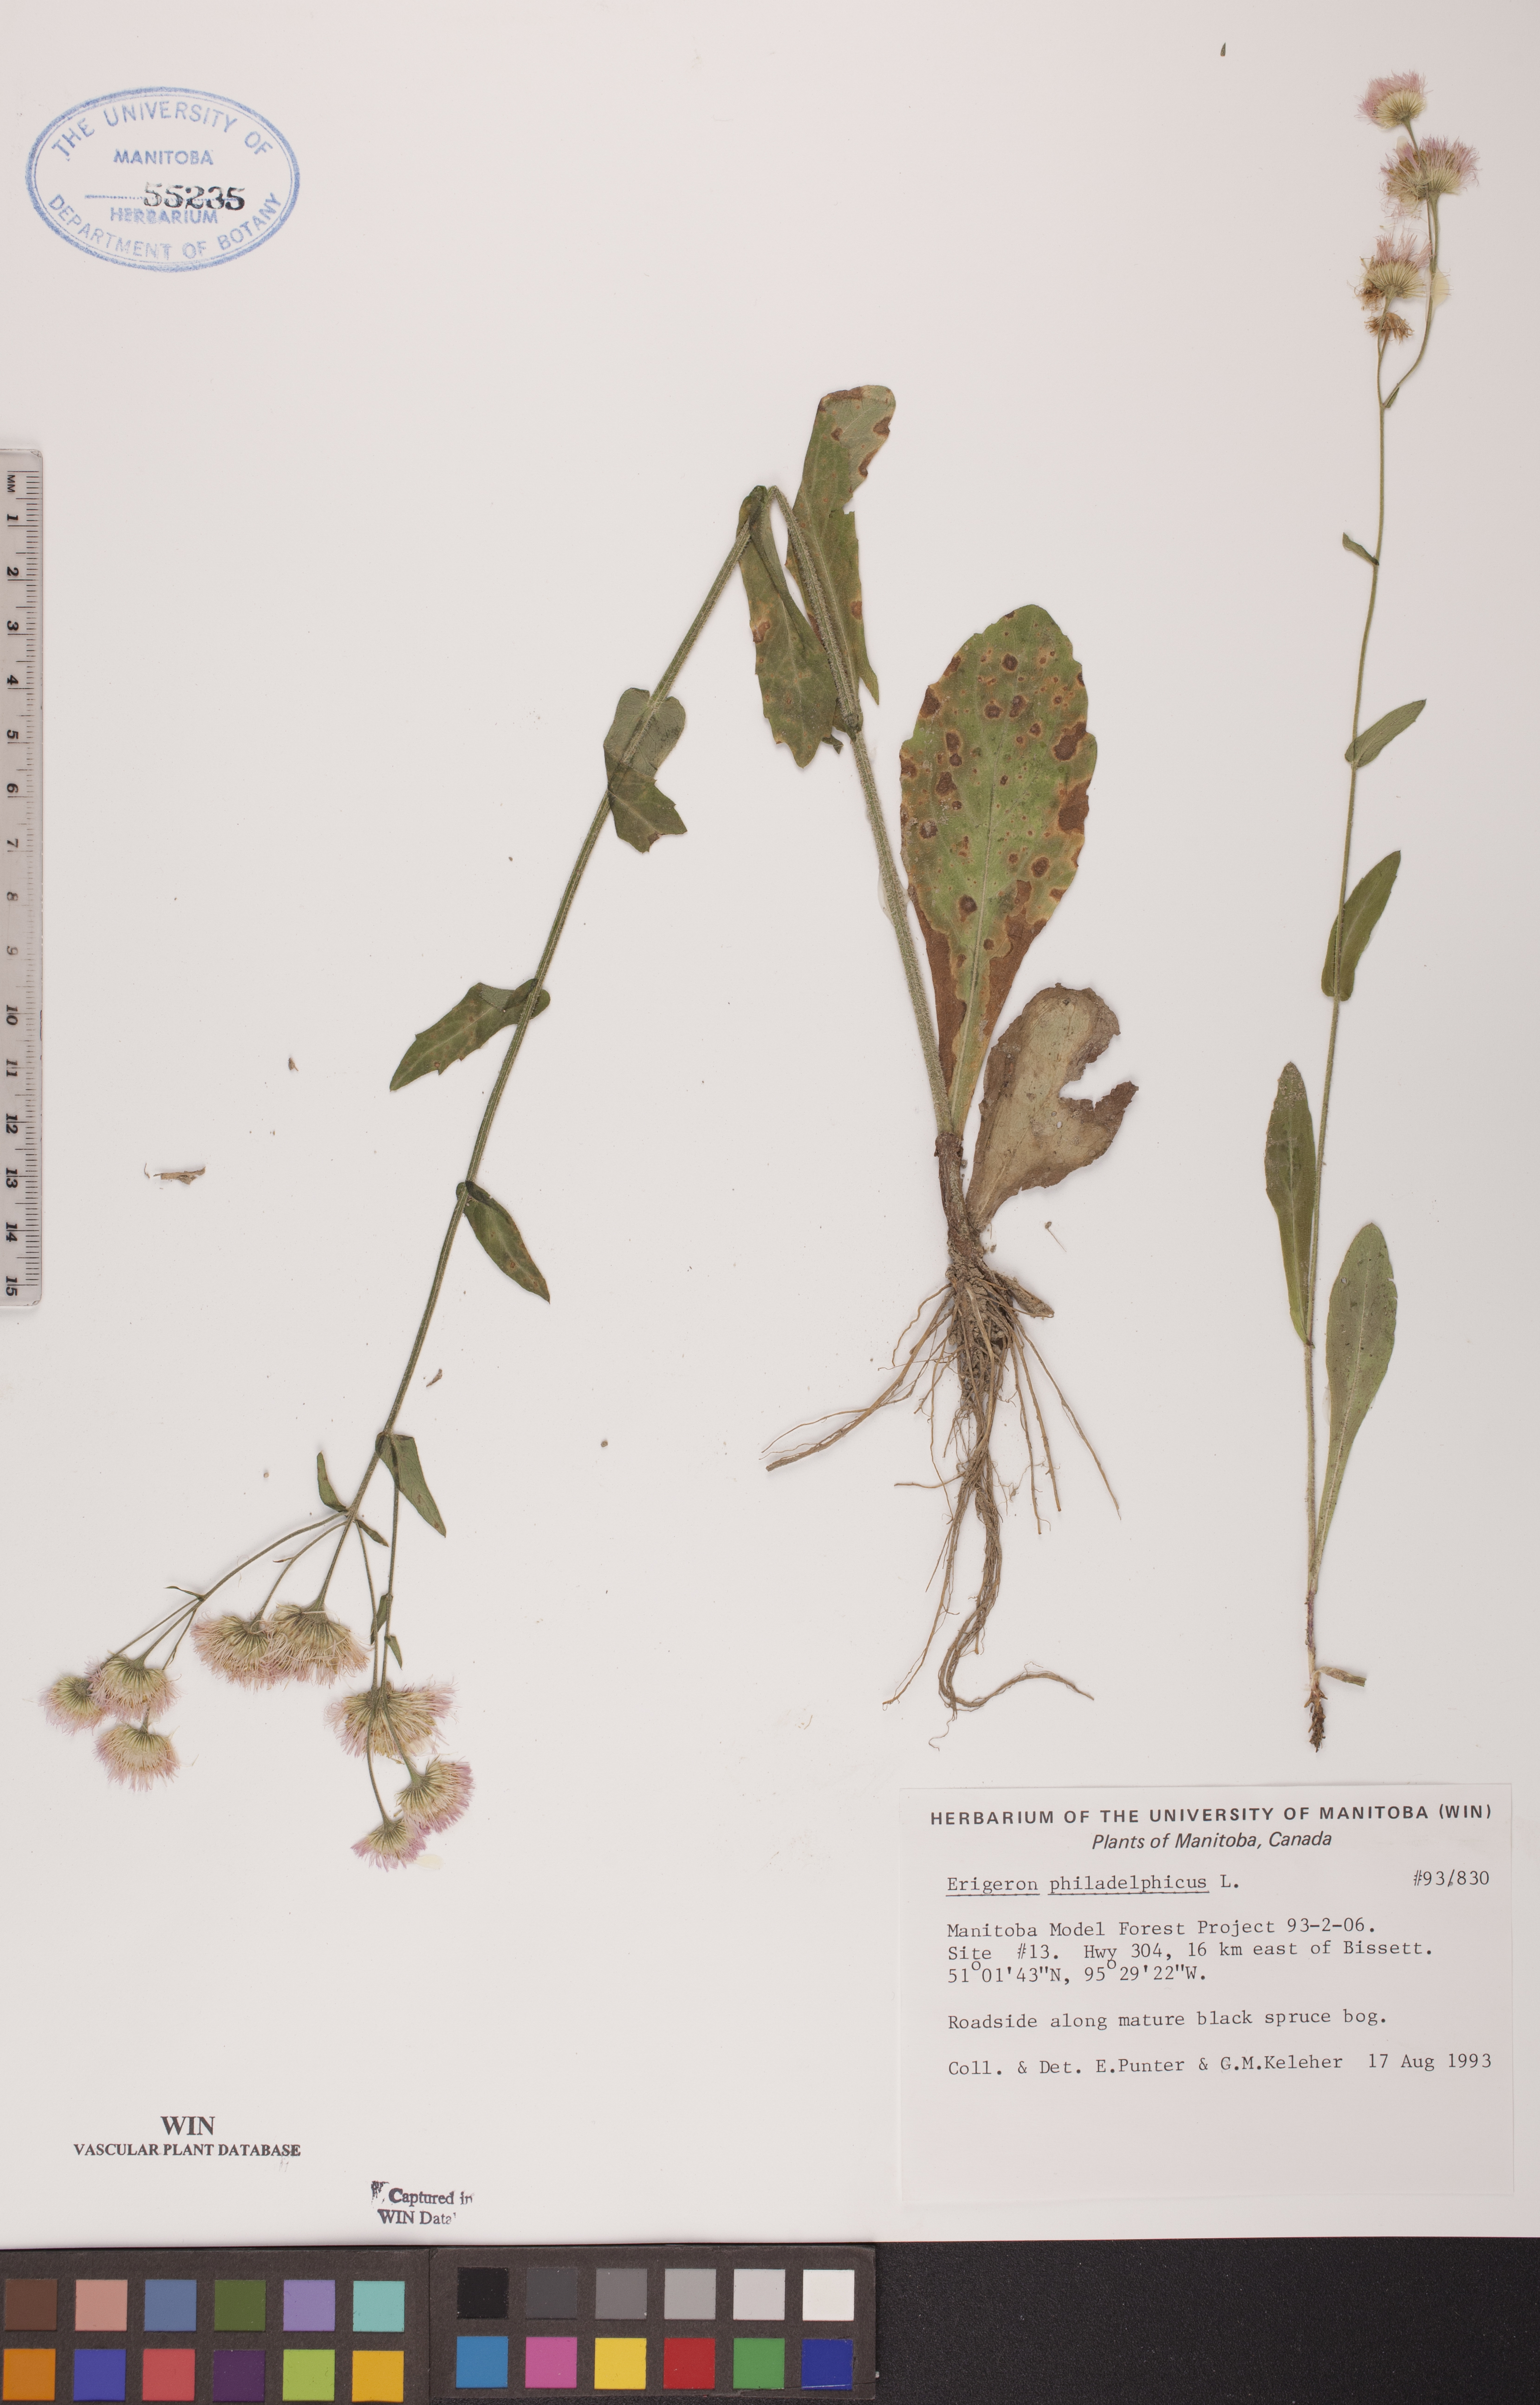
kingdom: Plantae
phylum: Tracheophyta
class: Magnoliopsida
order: Asterales
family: Asteraceae
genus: Erigeron
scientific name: Erigeron philadelphicus
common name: Robin's-plantain
